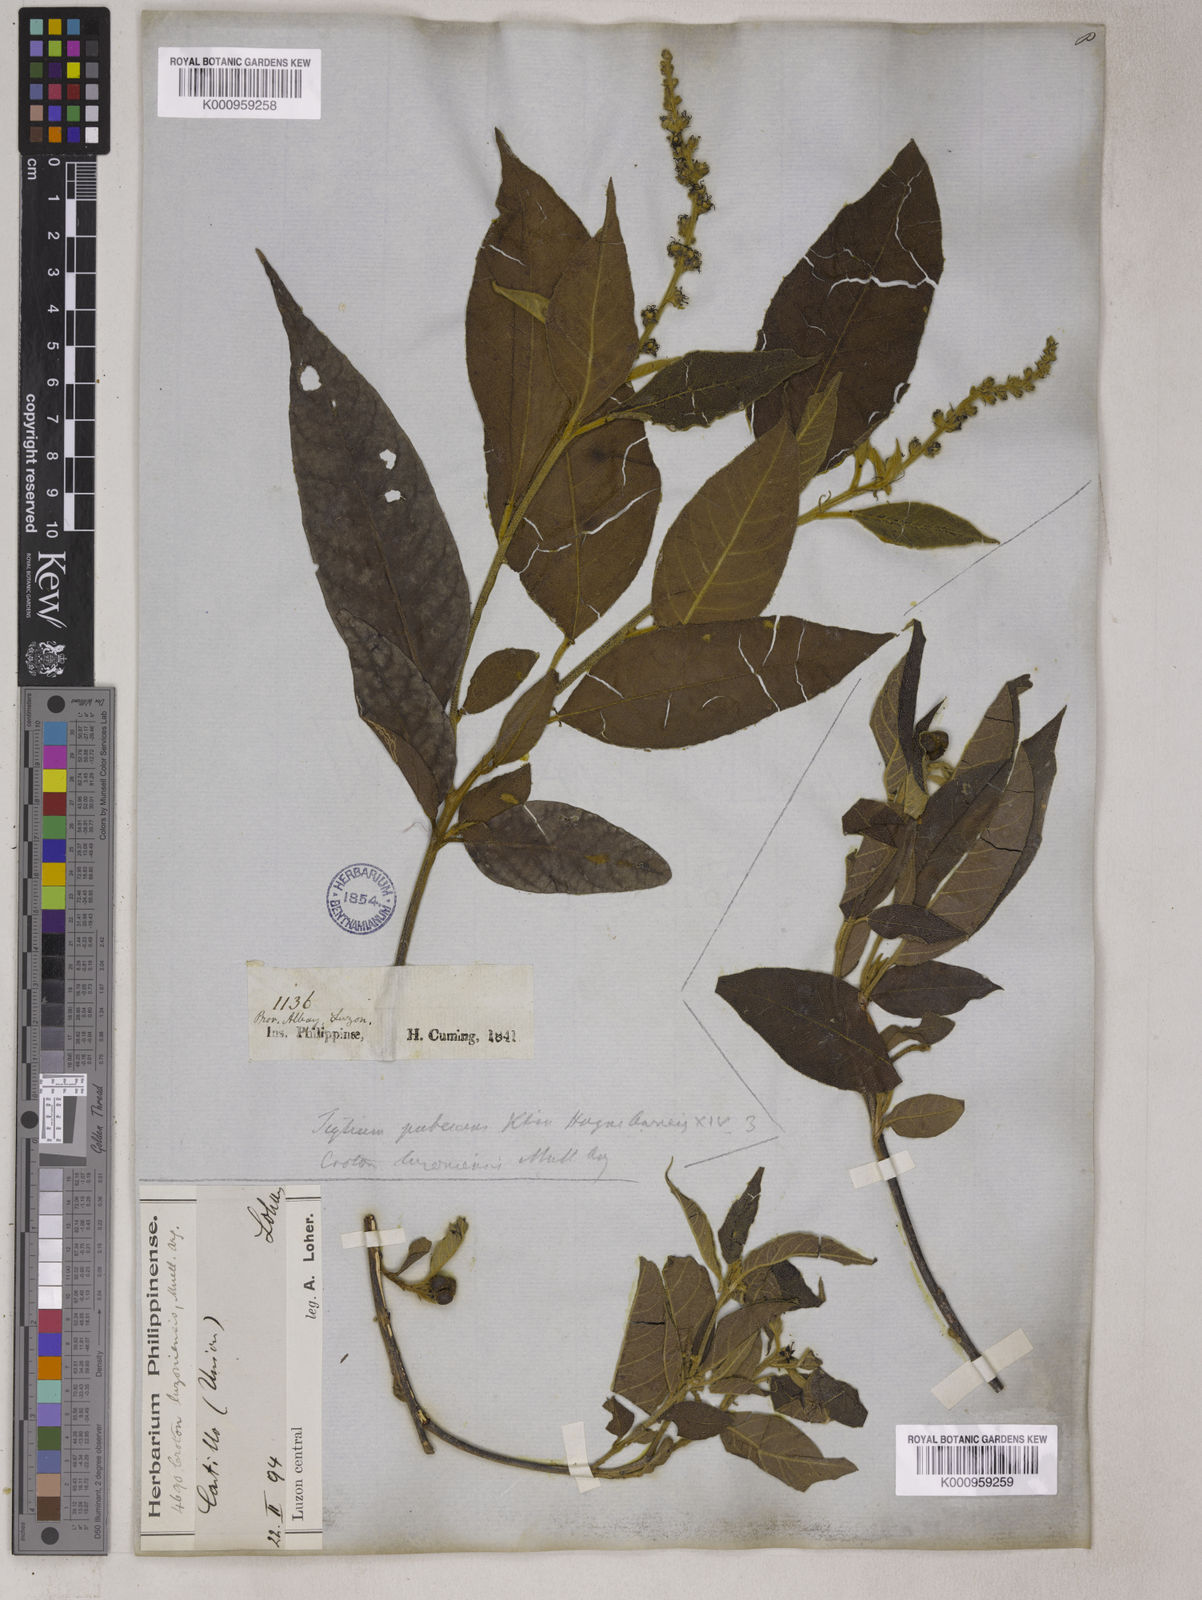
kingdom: Plantae
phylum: Tracheophyta
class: Magnoliopsida
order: Malpighiales
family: Euphorbiaceae
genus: Croton
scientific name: Croton
